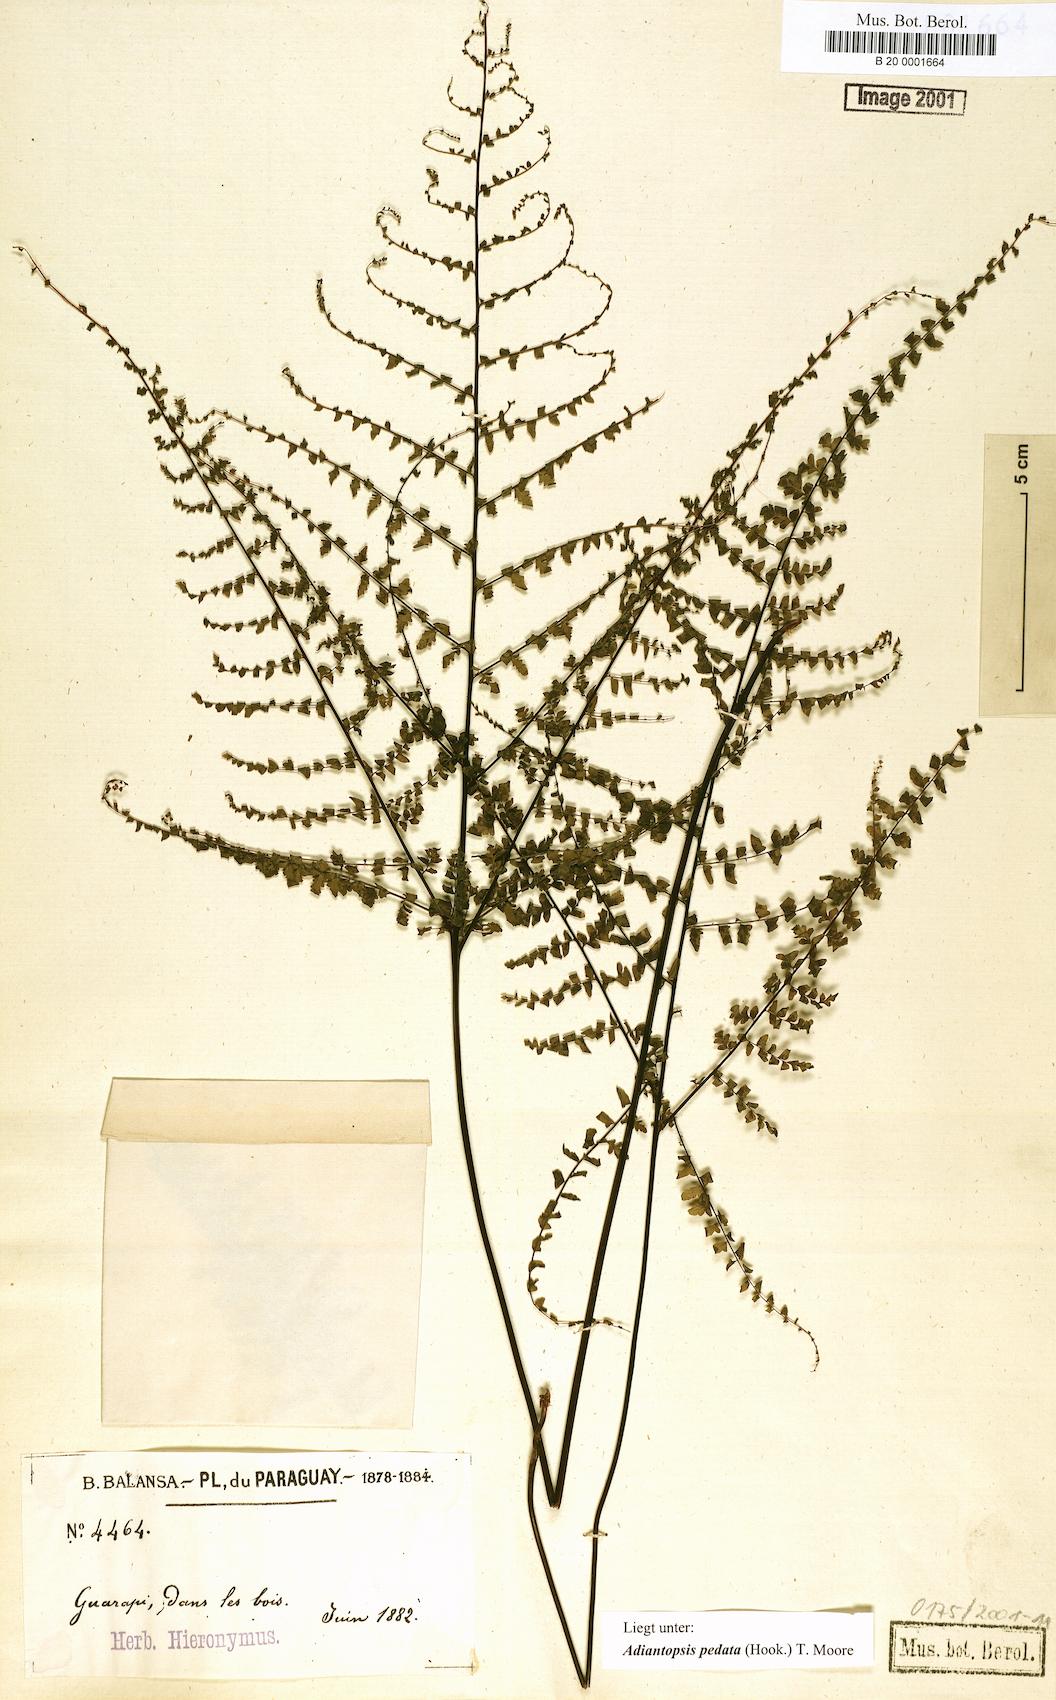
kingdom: Plantae
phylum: Tracheophyta
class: Polypodiopsida
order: Polypodiales
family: Pteridaceae
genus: Adiantopsis
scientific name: Adiantopsis australopedata
